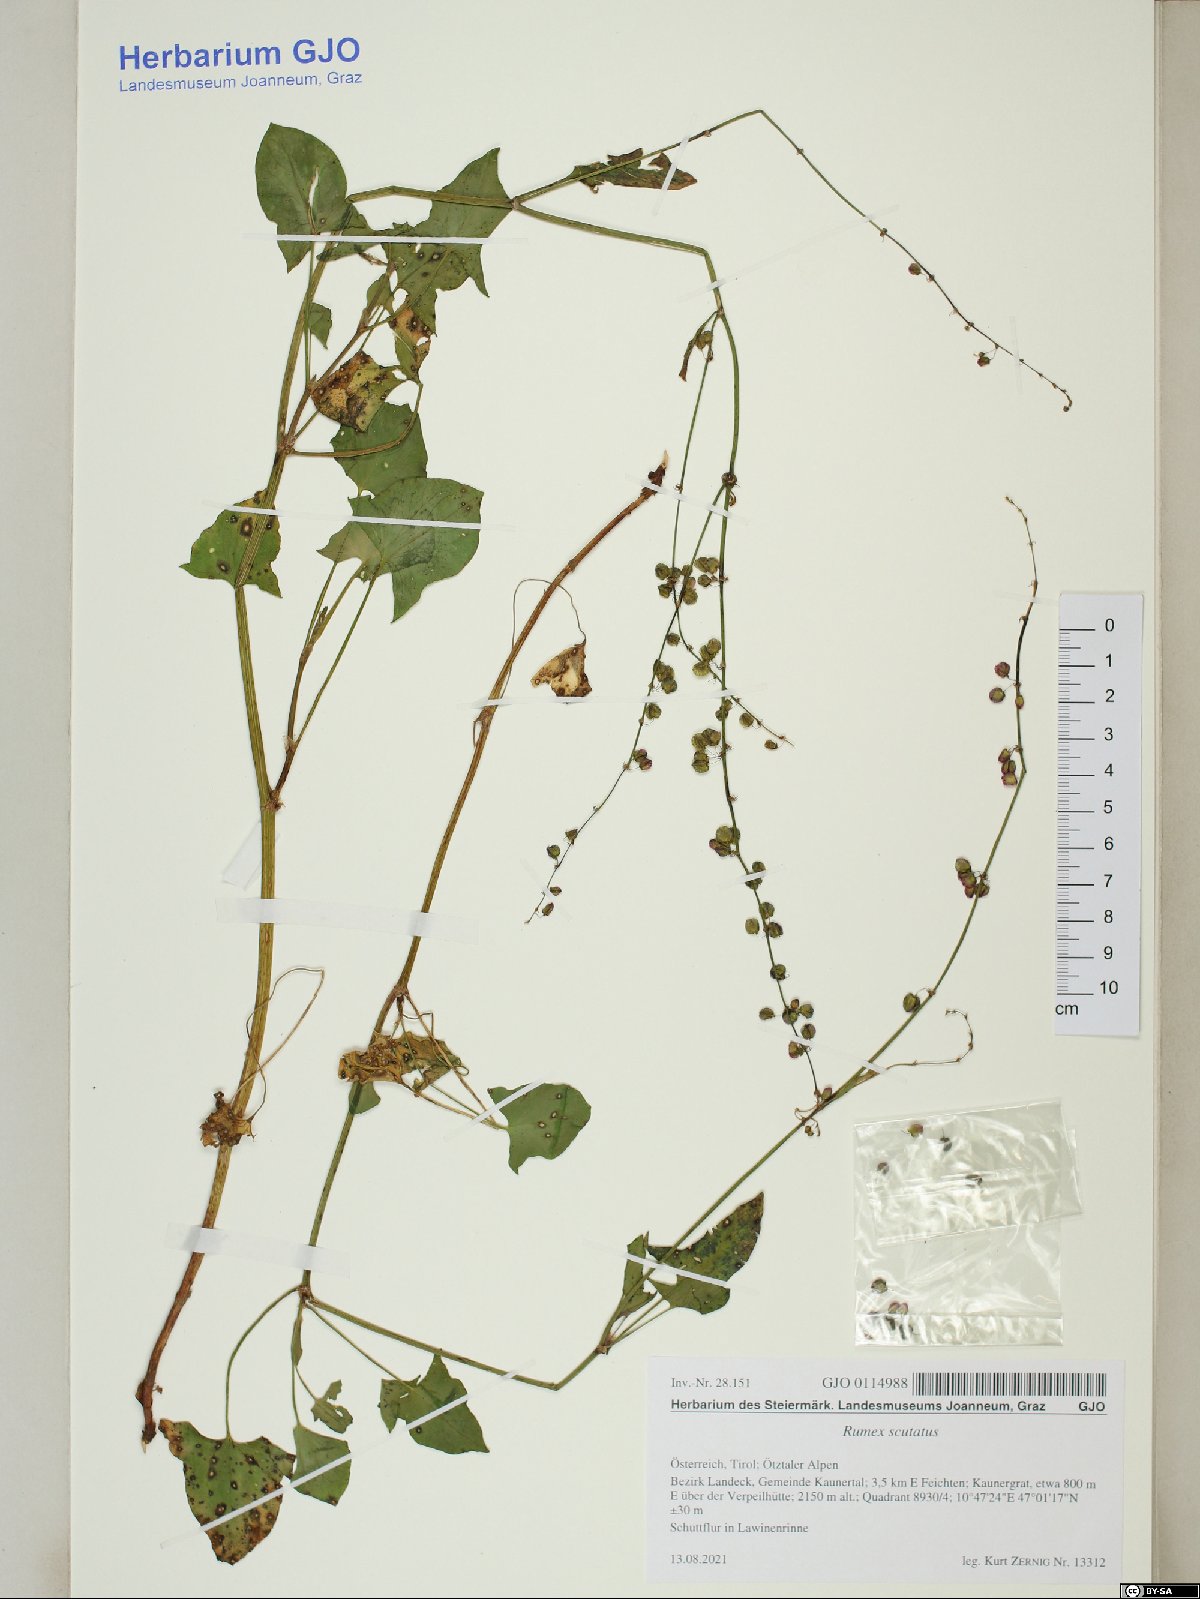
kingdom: Plantae
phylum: Tracheophyta
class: Magnoliopsida
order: Caryophyllales
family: Polygonaceae
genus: Rumex
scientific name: Rumex scutatus
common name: French sorrel
